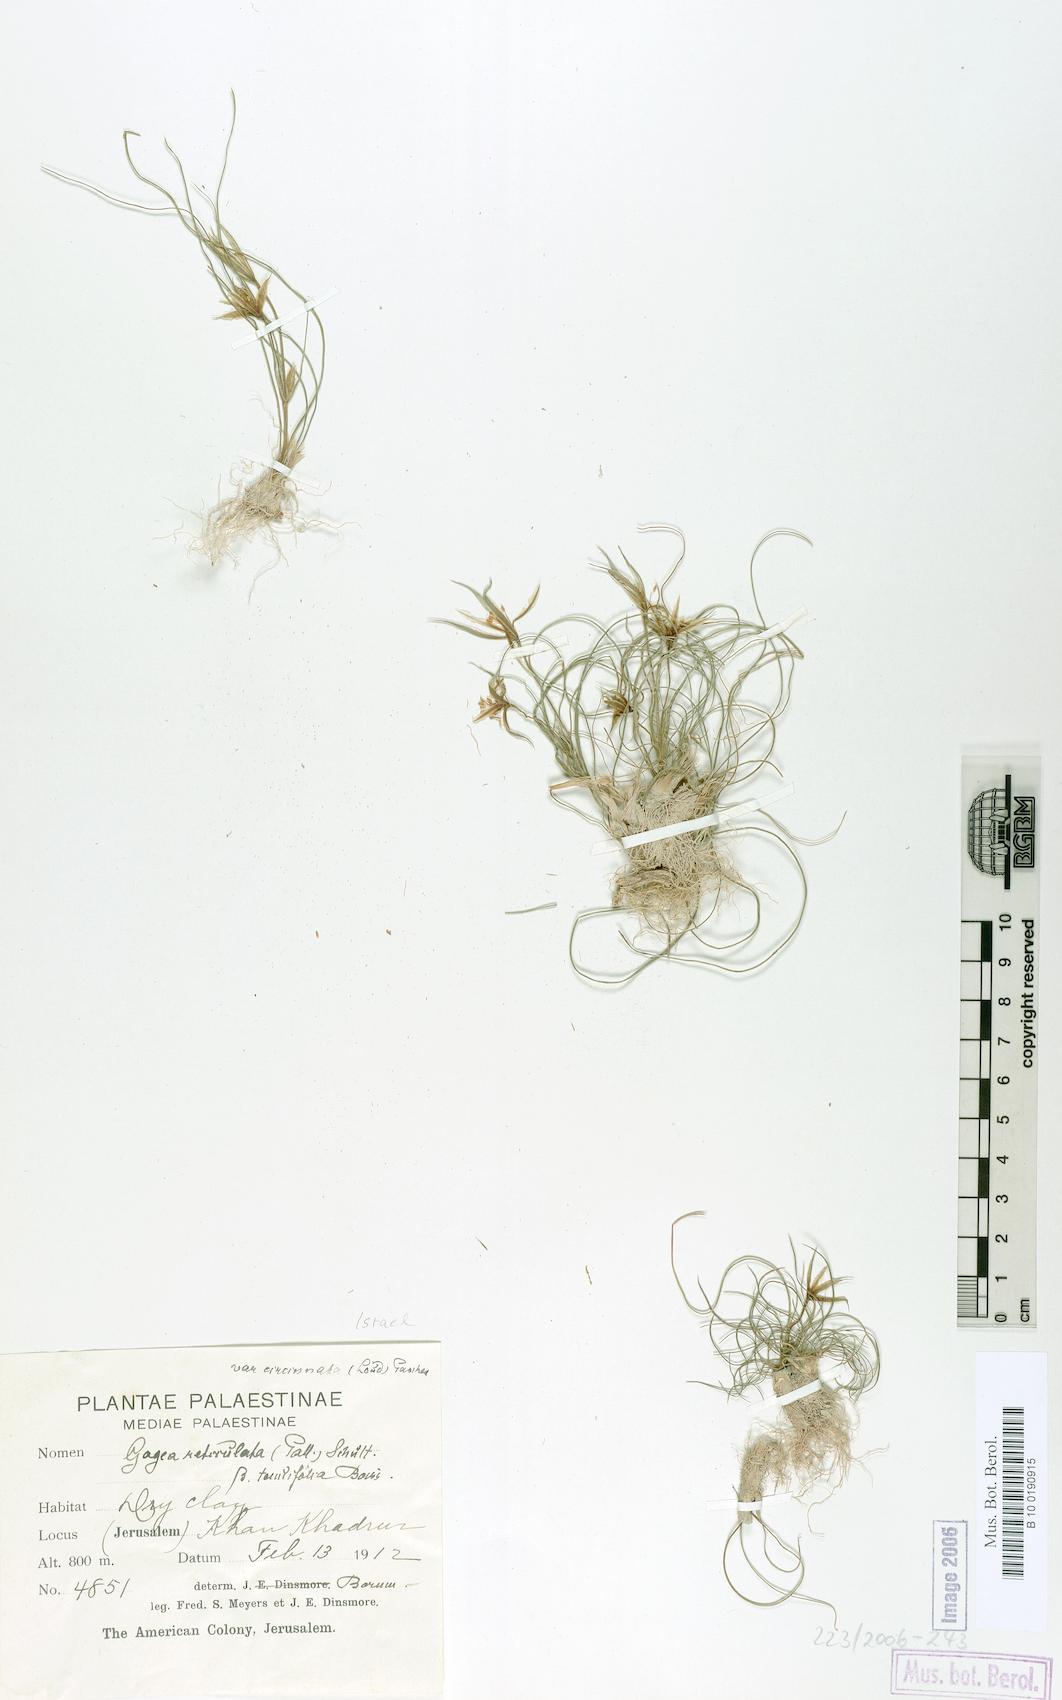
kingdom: Plantae
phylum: Tracheophyta
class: Liliopsida
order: Liliales
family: Liliaceae
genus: Gagea
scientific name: Gagea reticulata
